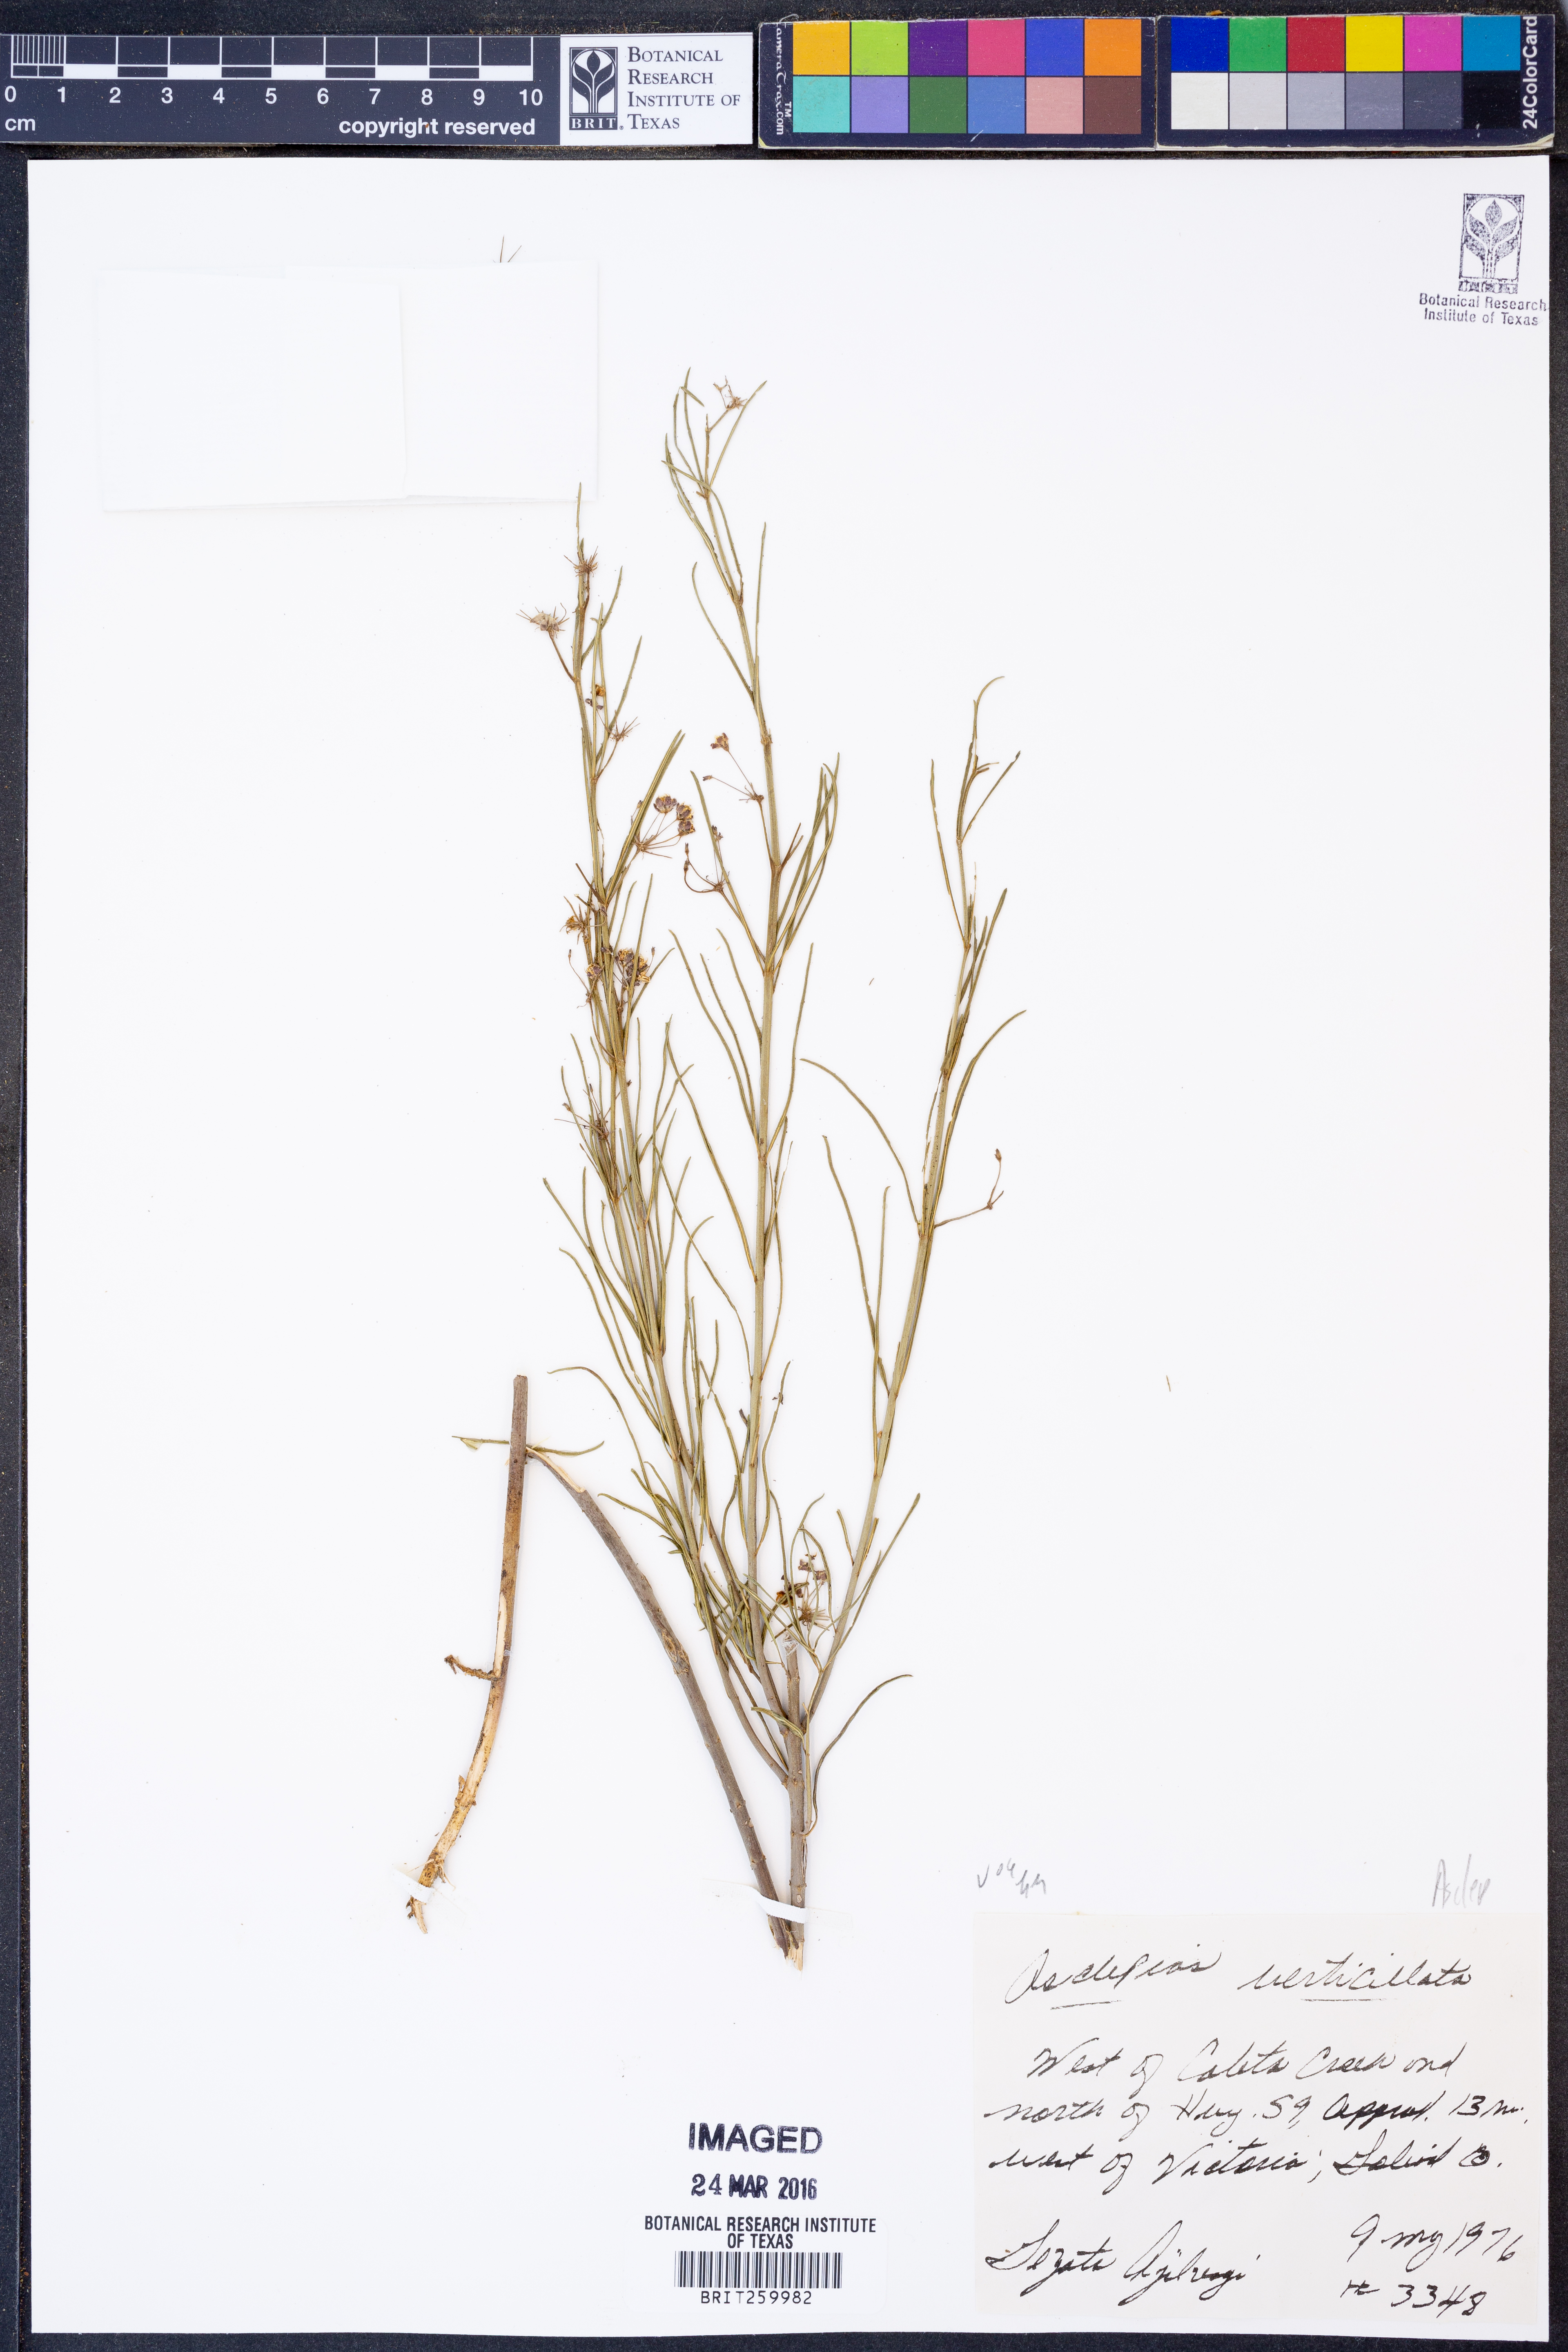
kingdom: Plantae
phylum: Tracheophyta
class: Magnoliopsida
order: Gentianales
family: Apocynaceae
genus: Asclepias
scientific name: Asclepias verticillata
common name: Eastern whorled milkweed
